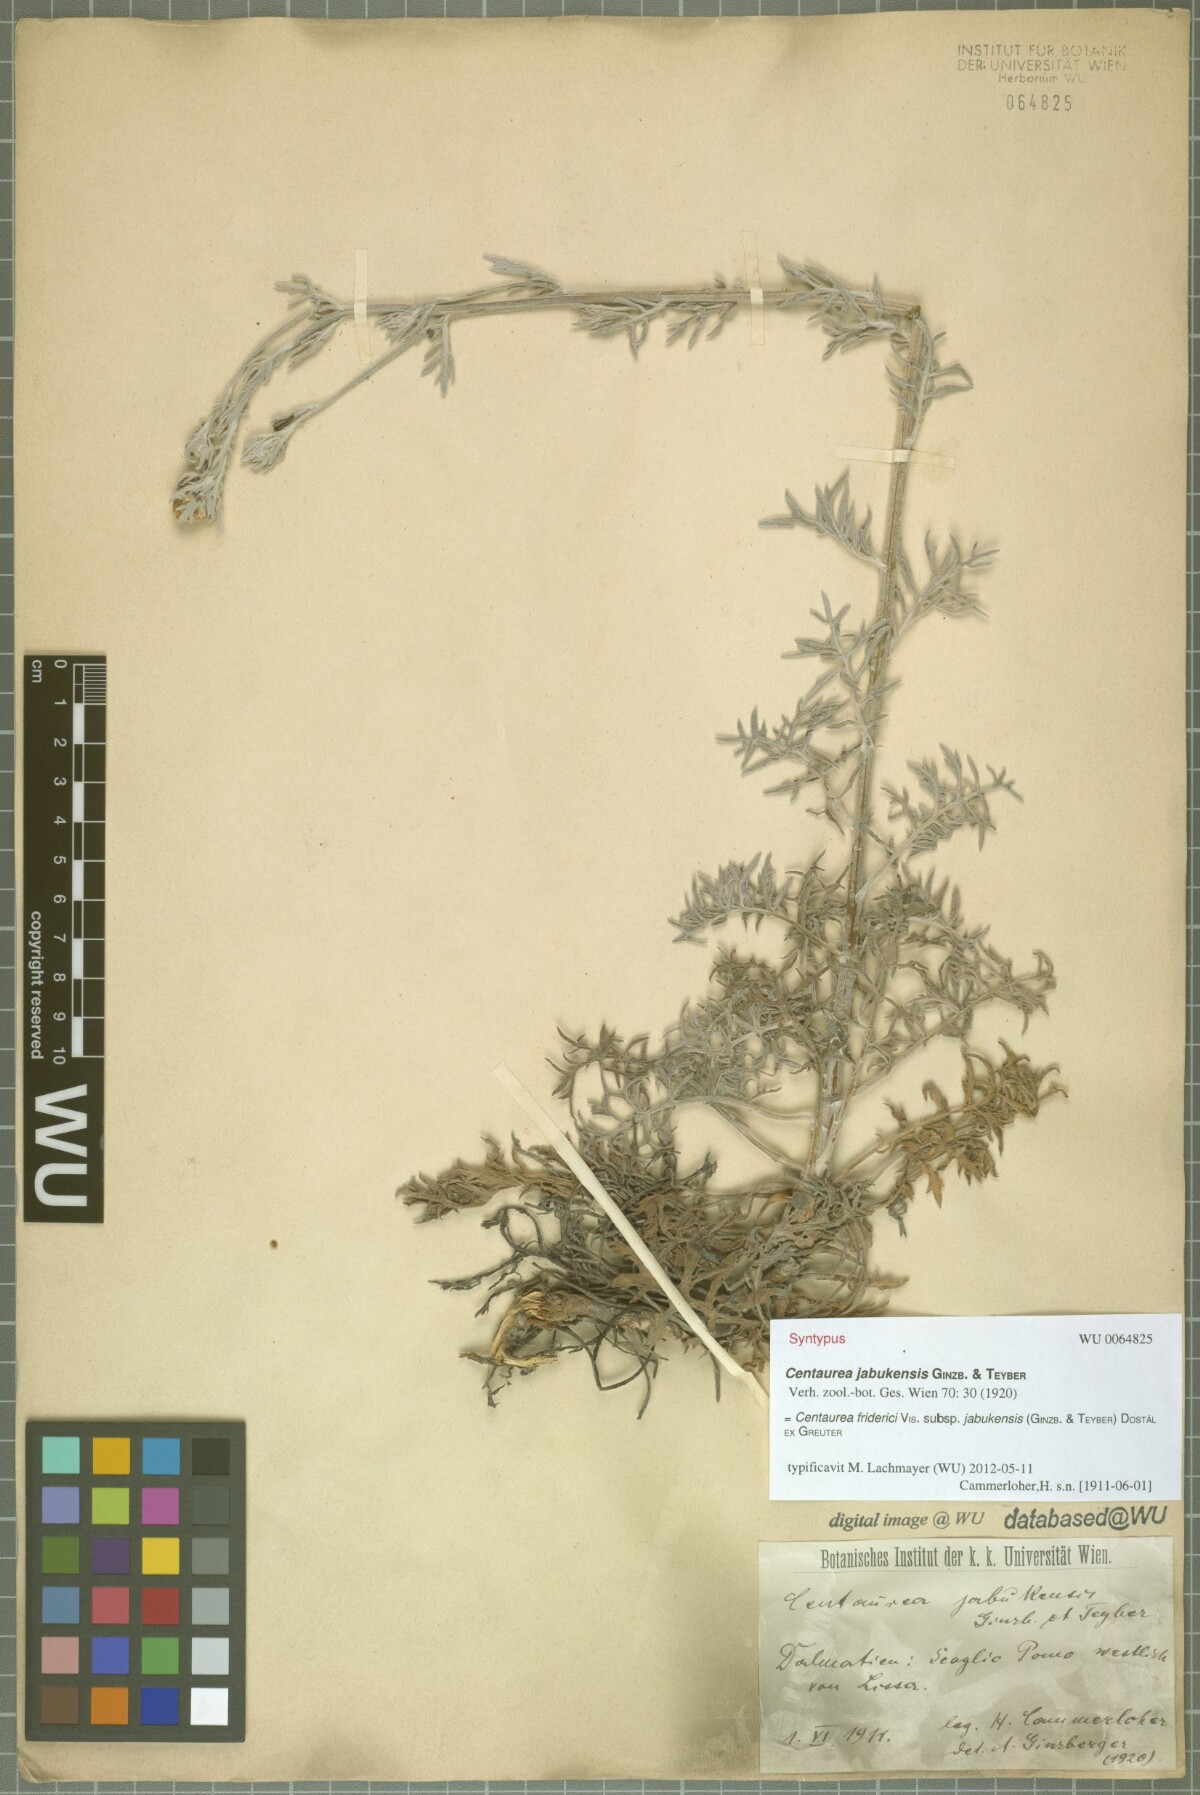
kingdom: Plantae
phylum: Tracheophyta
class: Magnoliopsida
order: Asterales
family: Asteraceae
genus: Centaurea
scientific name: Centaurea friderici
